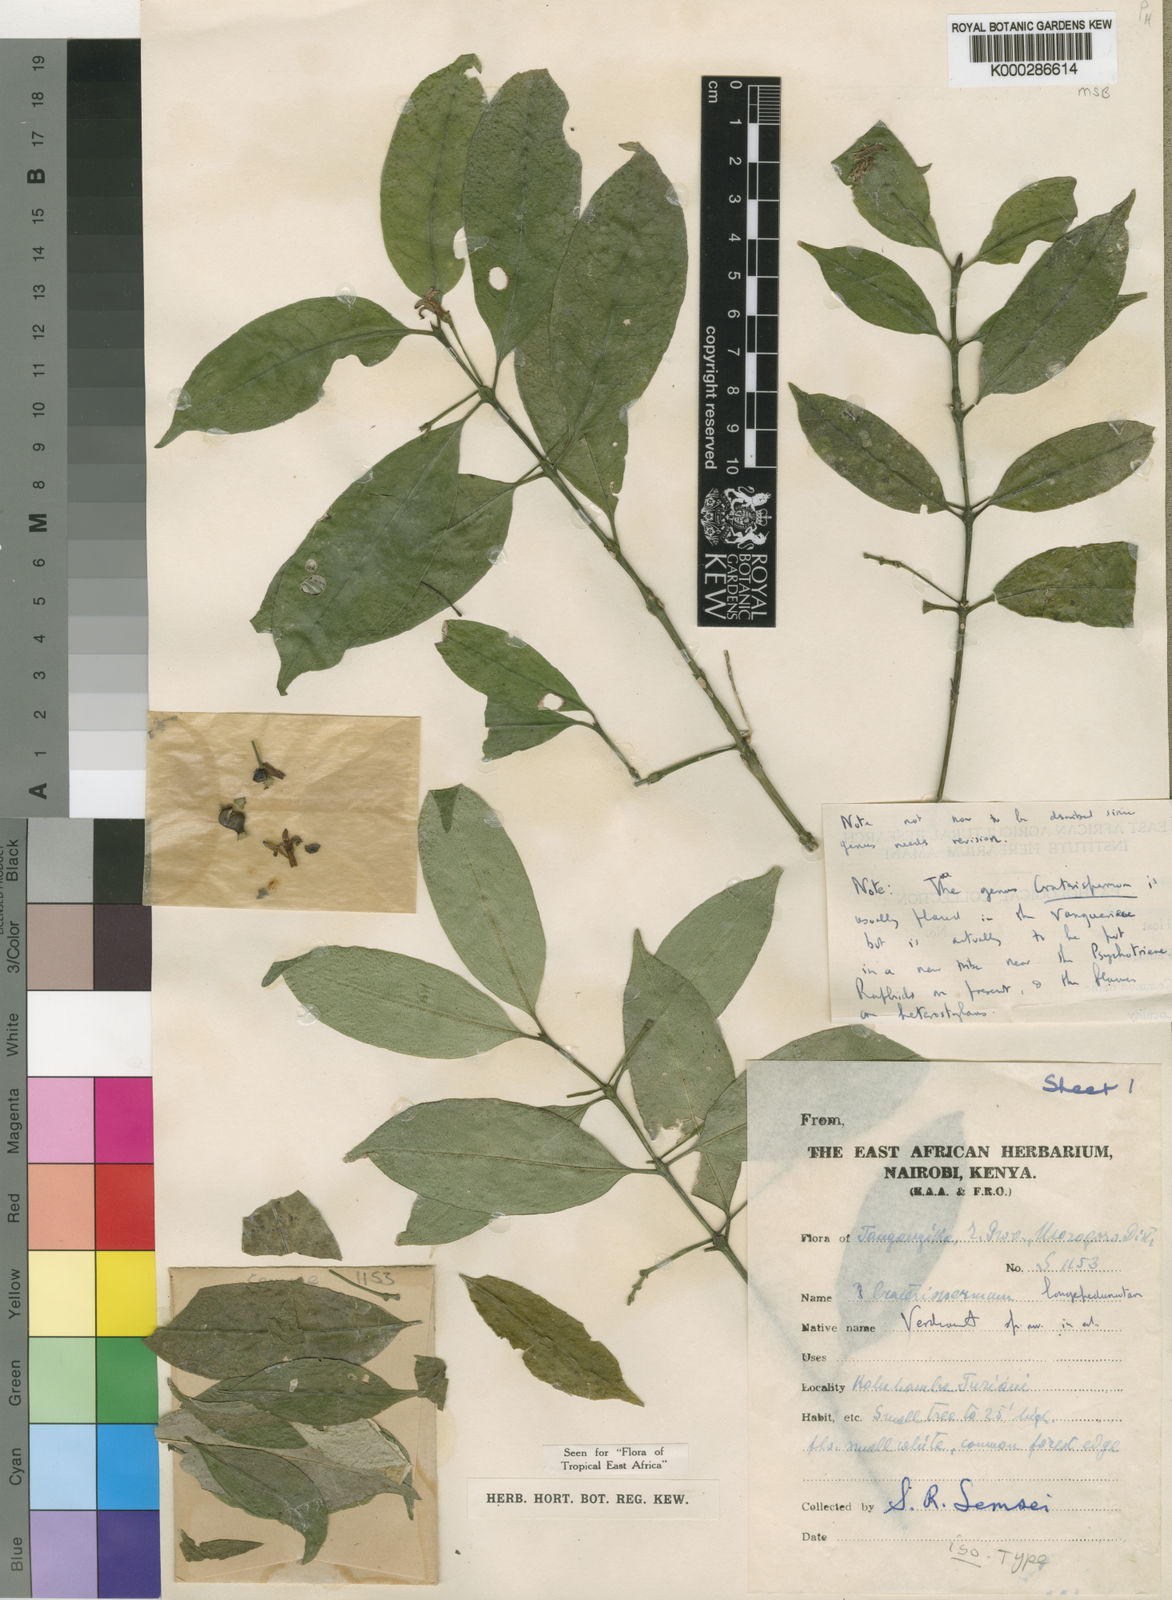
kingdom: Plantae
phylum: Tracheophyta
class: Magnoliopsida
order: Gentianales
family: Rubiaceae
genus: Craterispermum
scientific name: Craterispermum longipedunculatum
